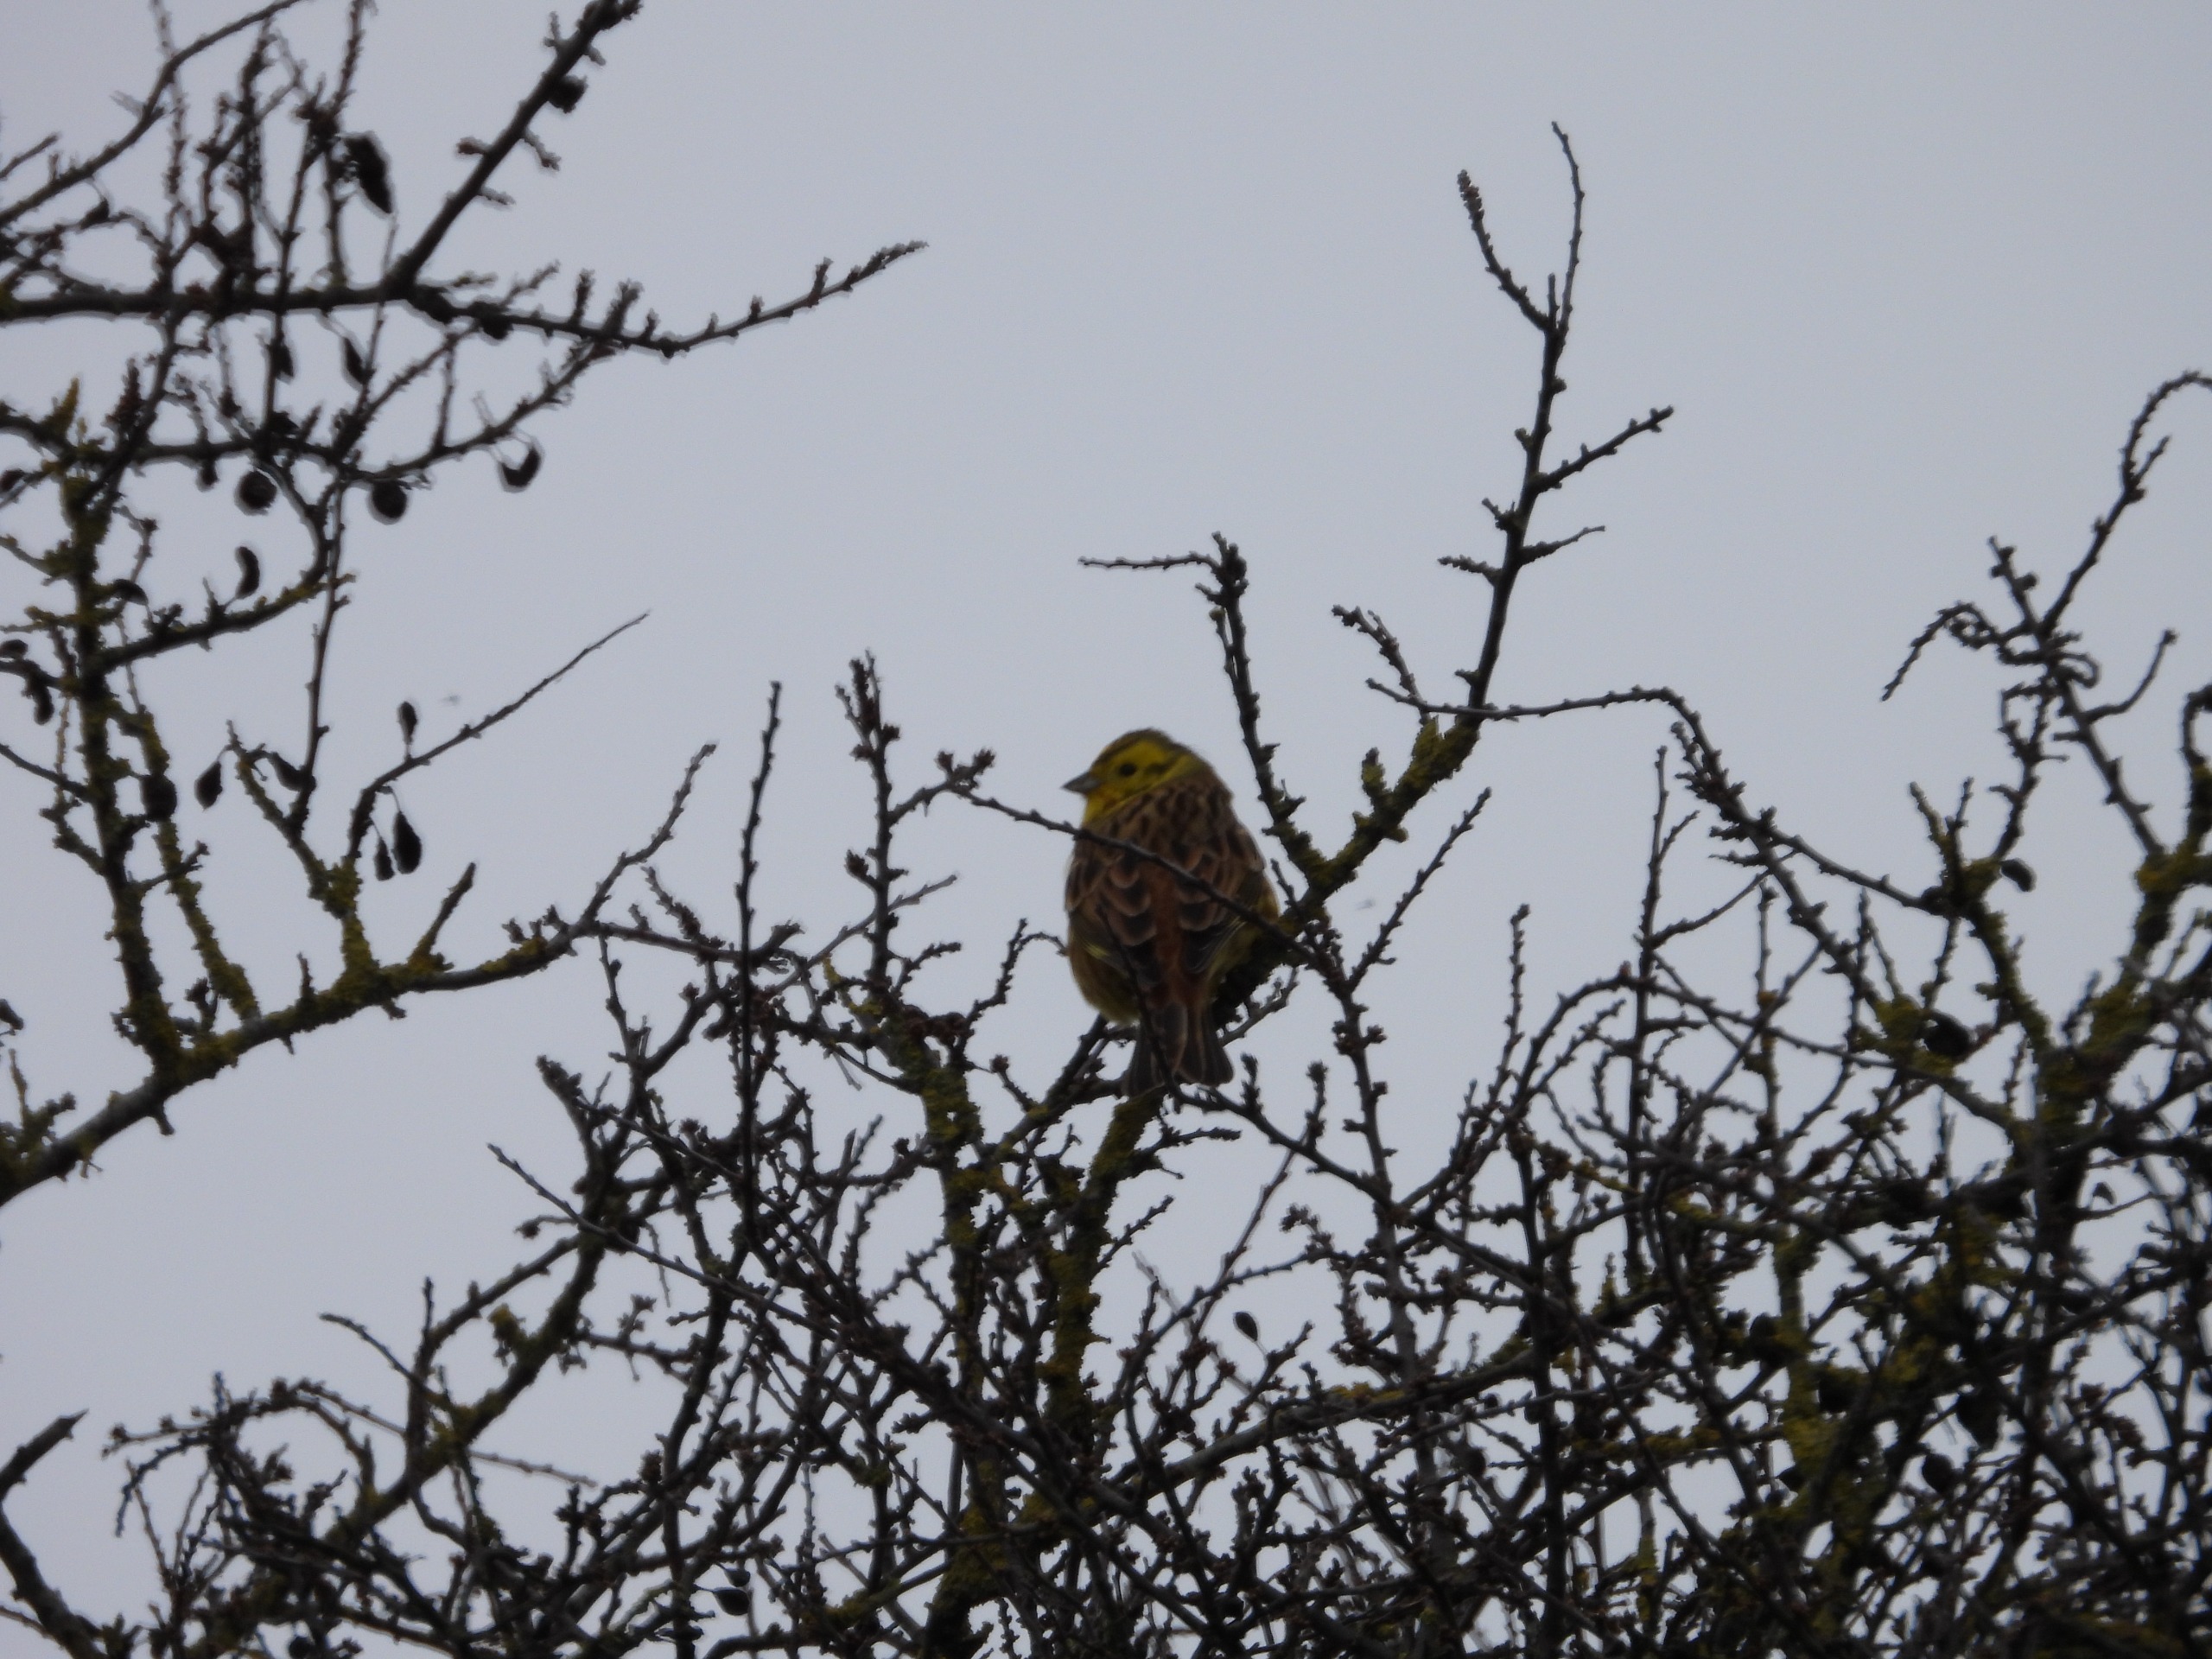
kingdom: Animalia
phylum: Chordata
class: Aves
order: Passeriformes
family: Emberizidae
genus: Emberiza
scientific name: Emberiza citrinella
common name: Gulspurv
